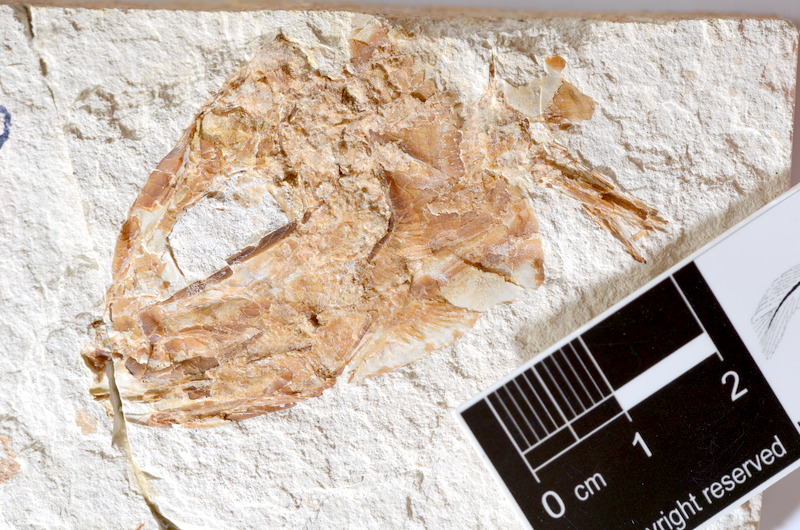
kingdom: Animalia
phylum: Chordata
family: Ascalaboidae
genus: Tharsis
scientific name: Tharsis dubius
